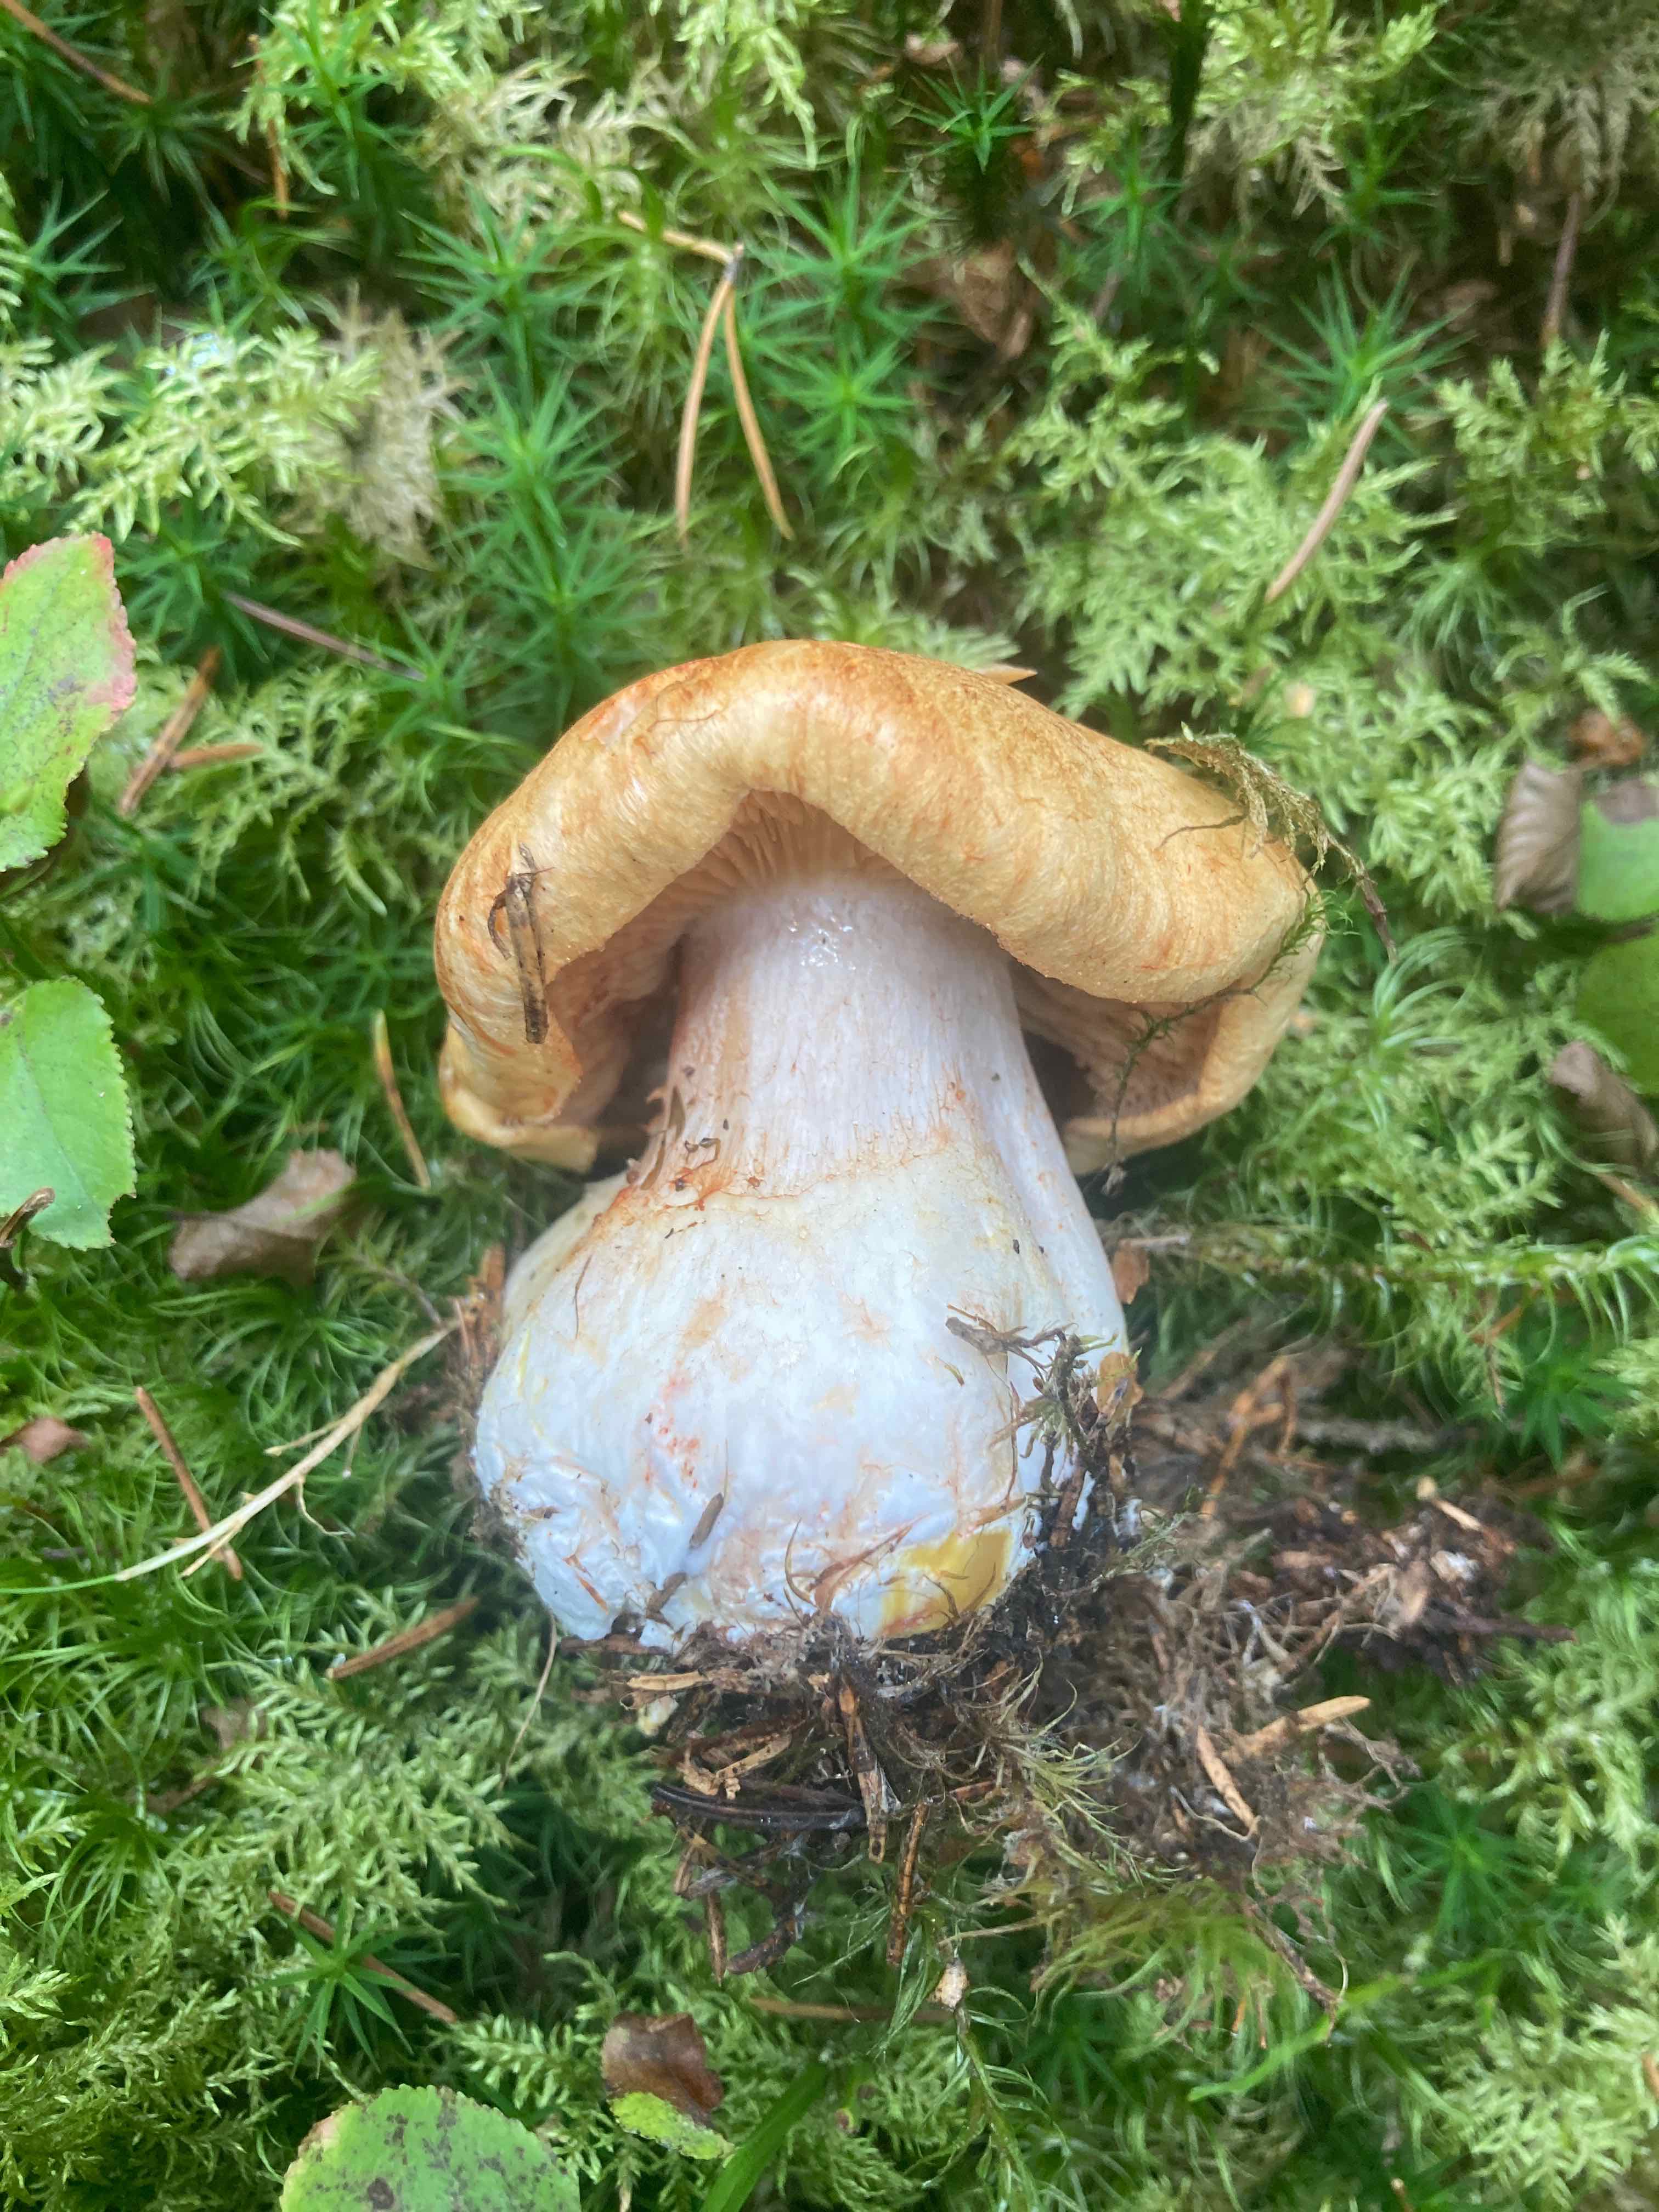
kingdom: Fungi
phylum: Basidiomycota
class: Agaricomycetes
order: Agaricales
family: Cortinariaceae
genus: Cystinarius
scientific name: Cystinarius rubicundulus
